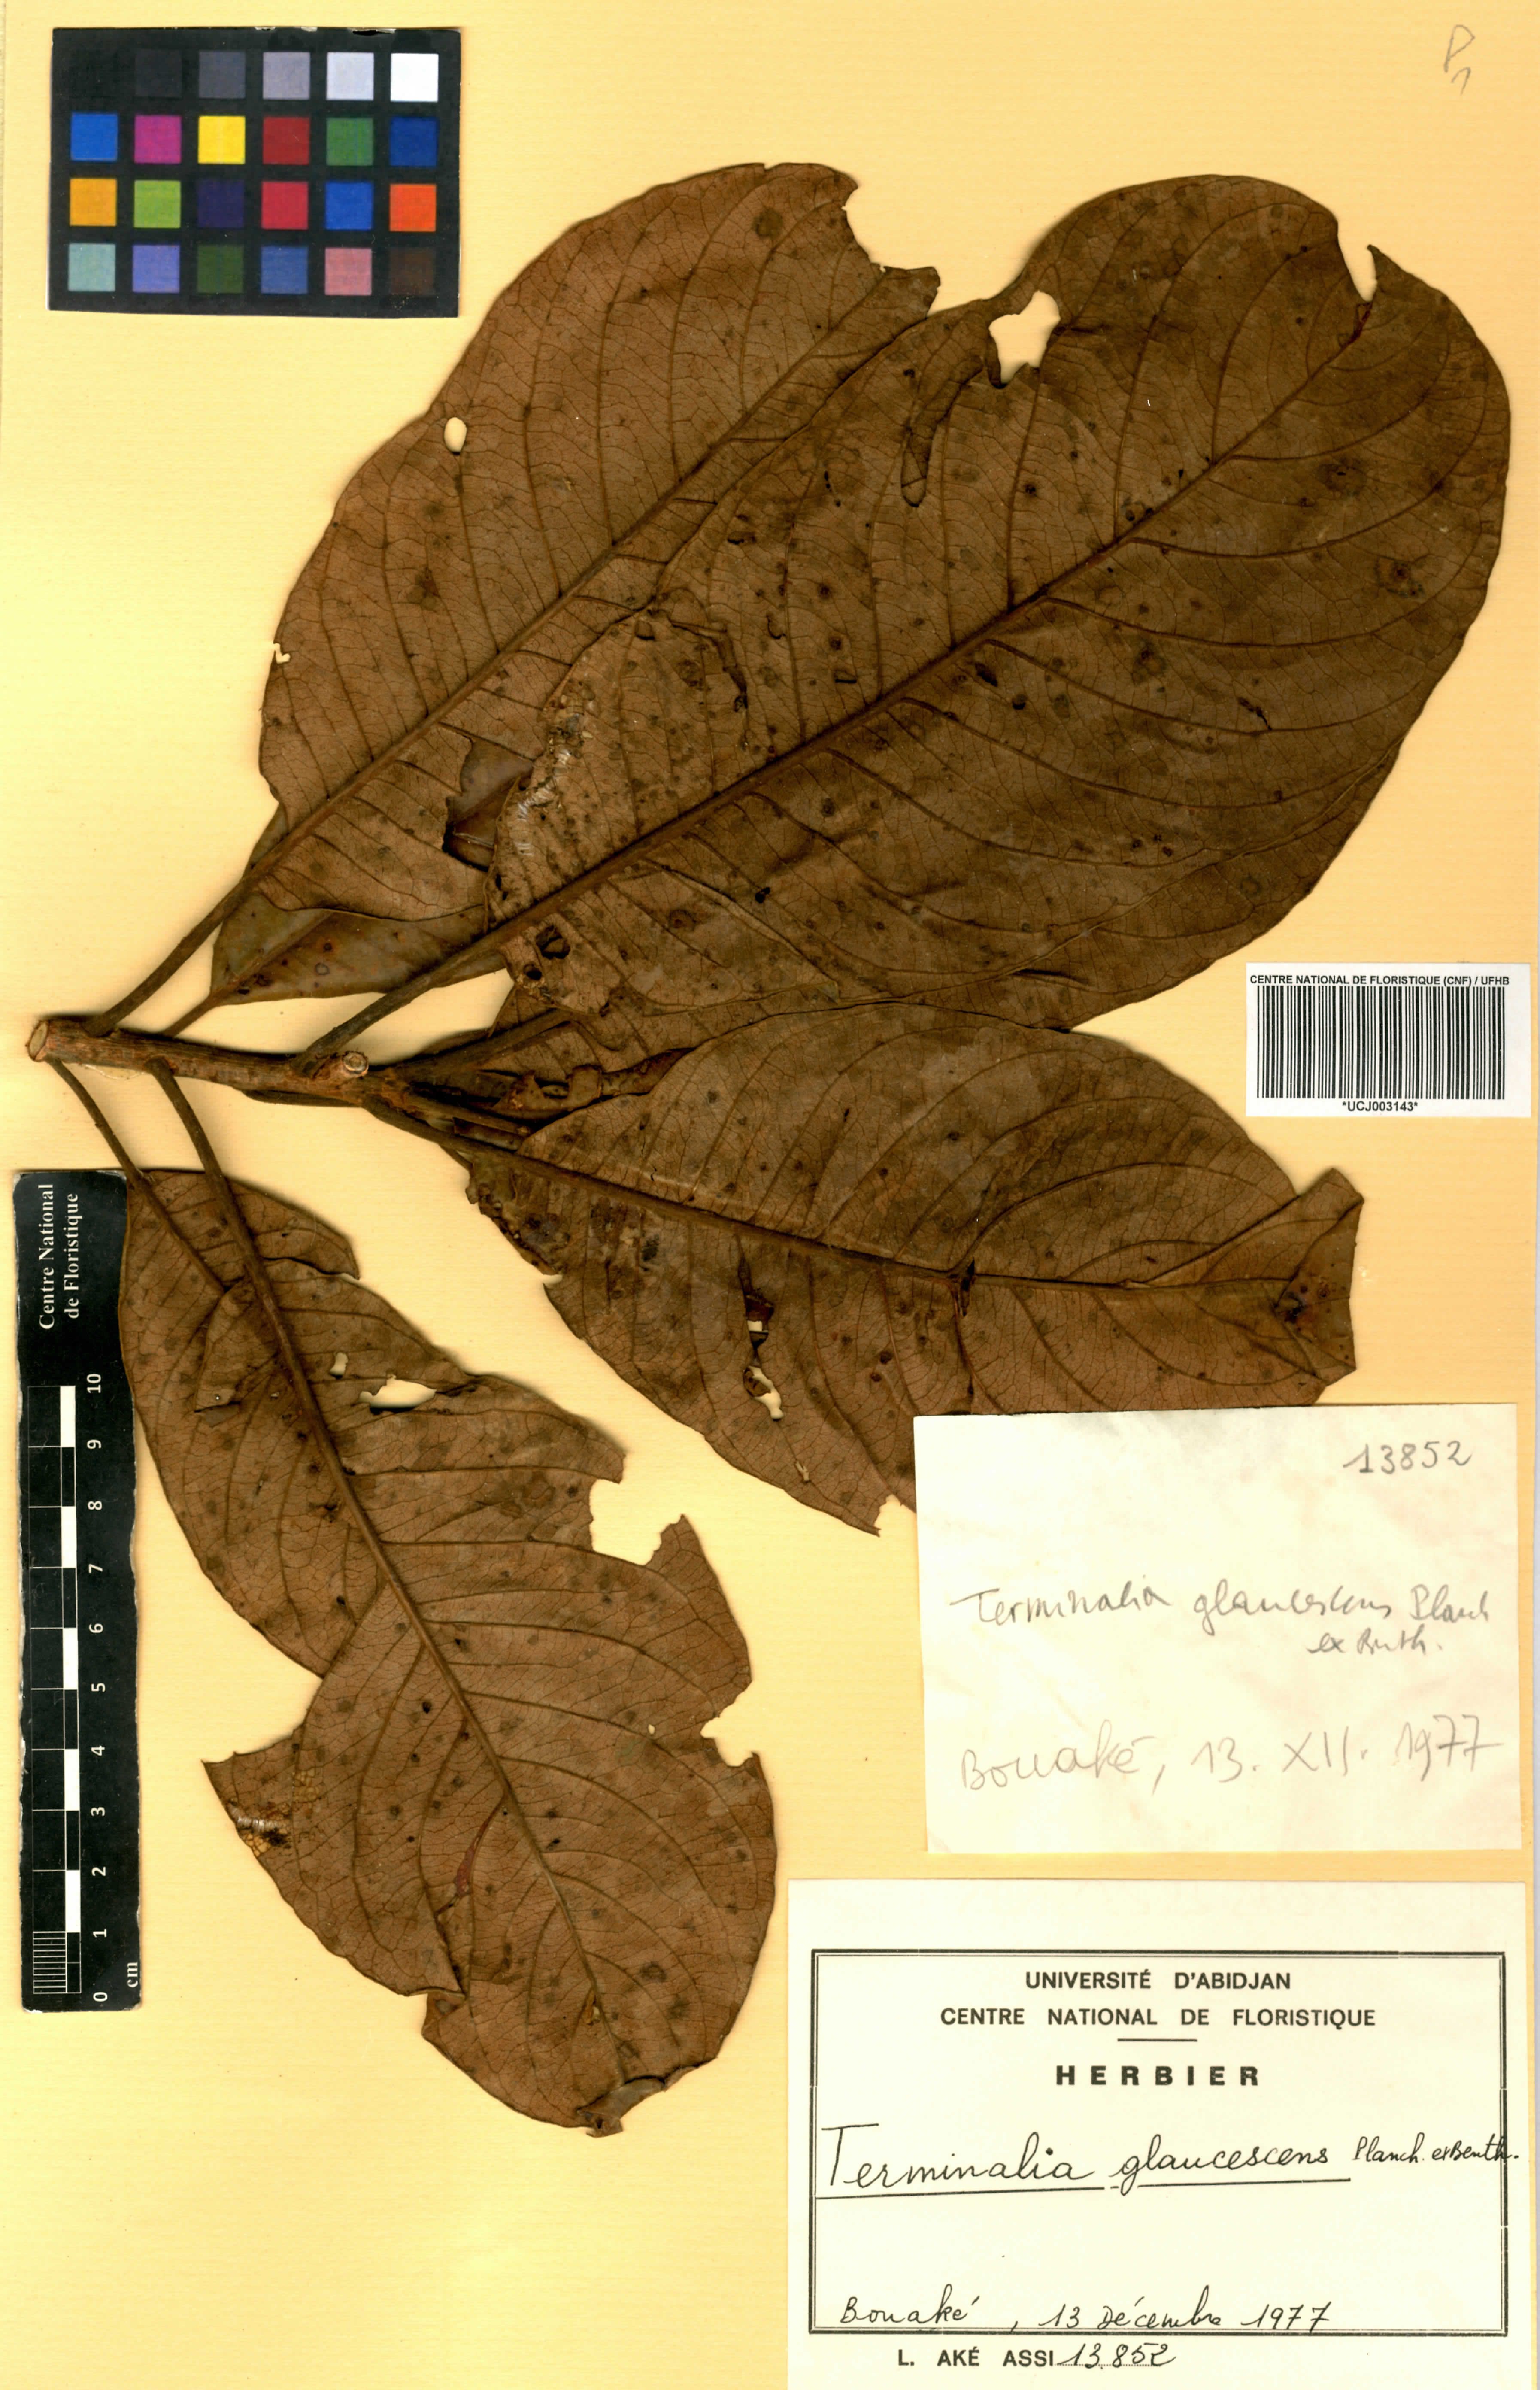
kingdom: Plantae
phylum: Tracheophyta
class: Magnoliopsida
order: Myrtales
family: Combretaceae
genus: Terminalia
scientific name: Terminalia schimperiana
